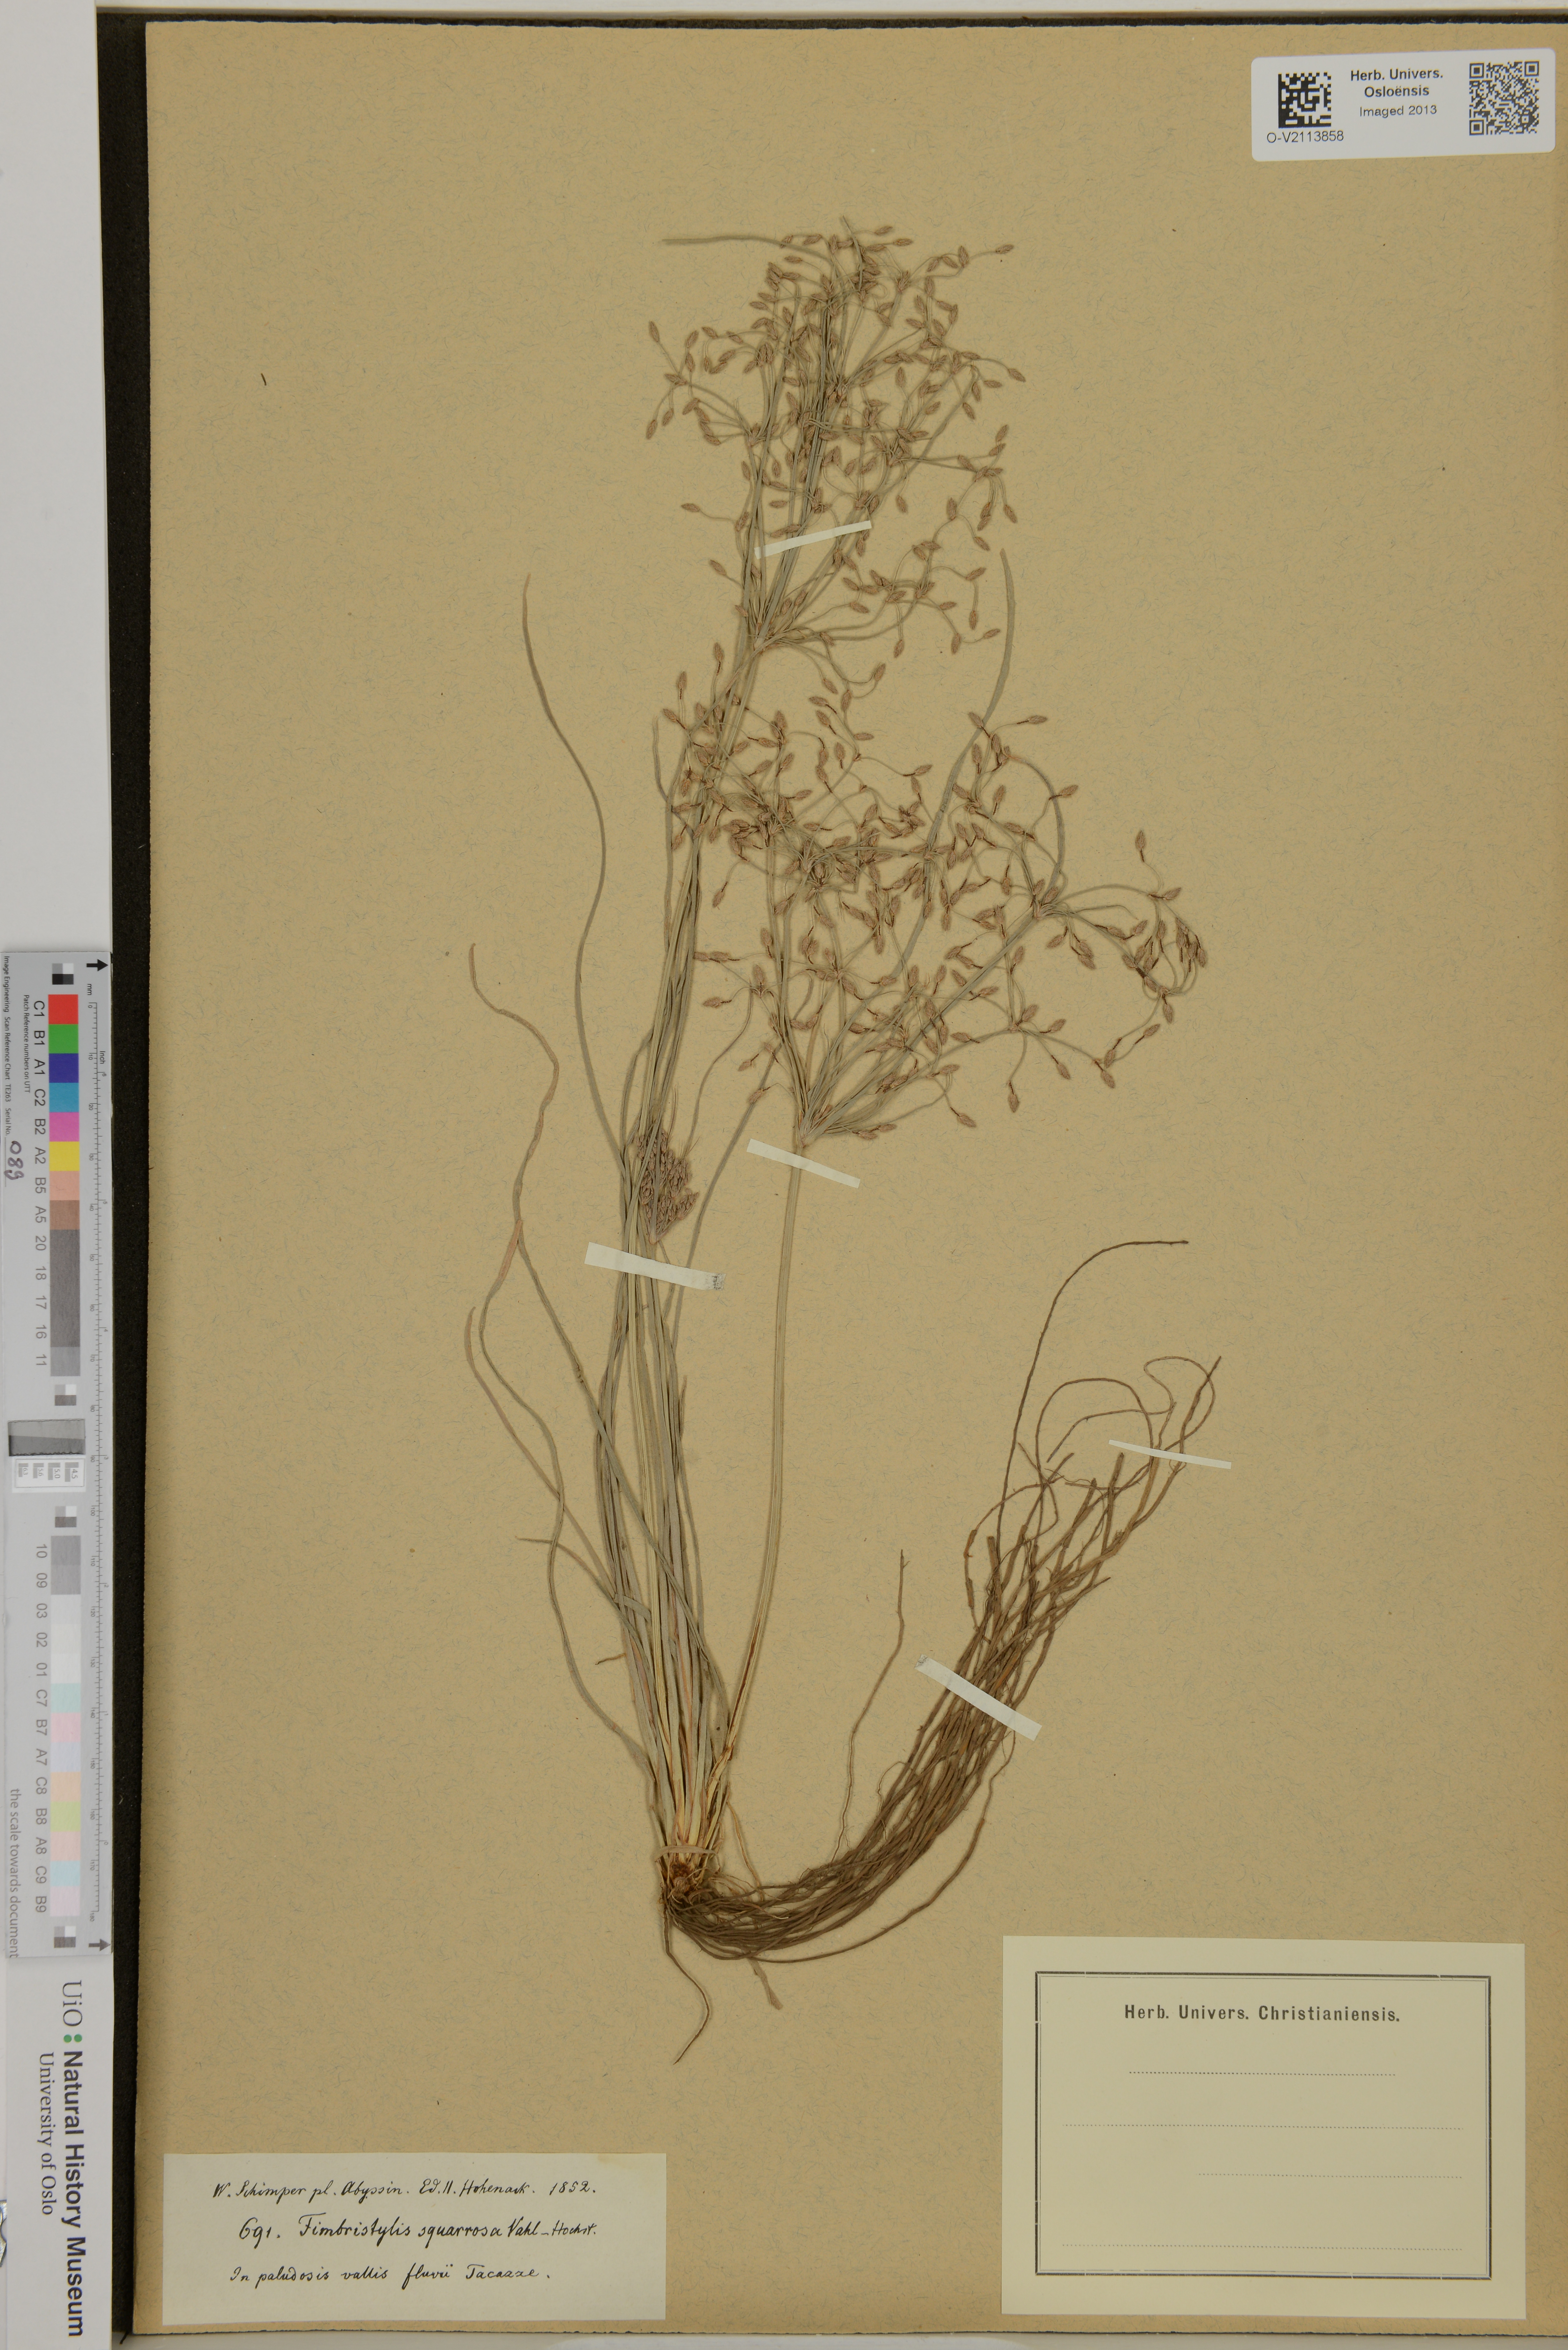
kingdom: Plantae
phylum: Tracheophyta
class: Liliopsida
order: Poales
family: Cyperaceae
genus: Fimbristylis
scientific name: Fimbristylis squarrosa
